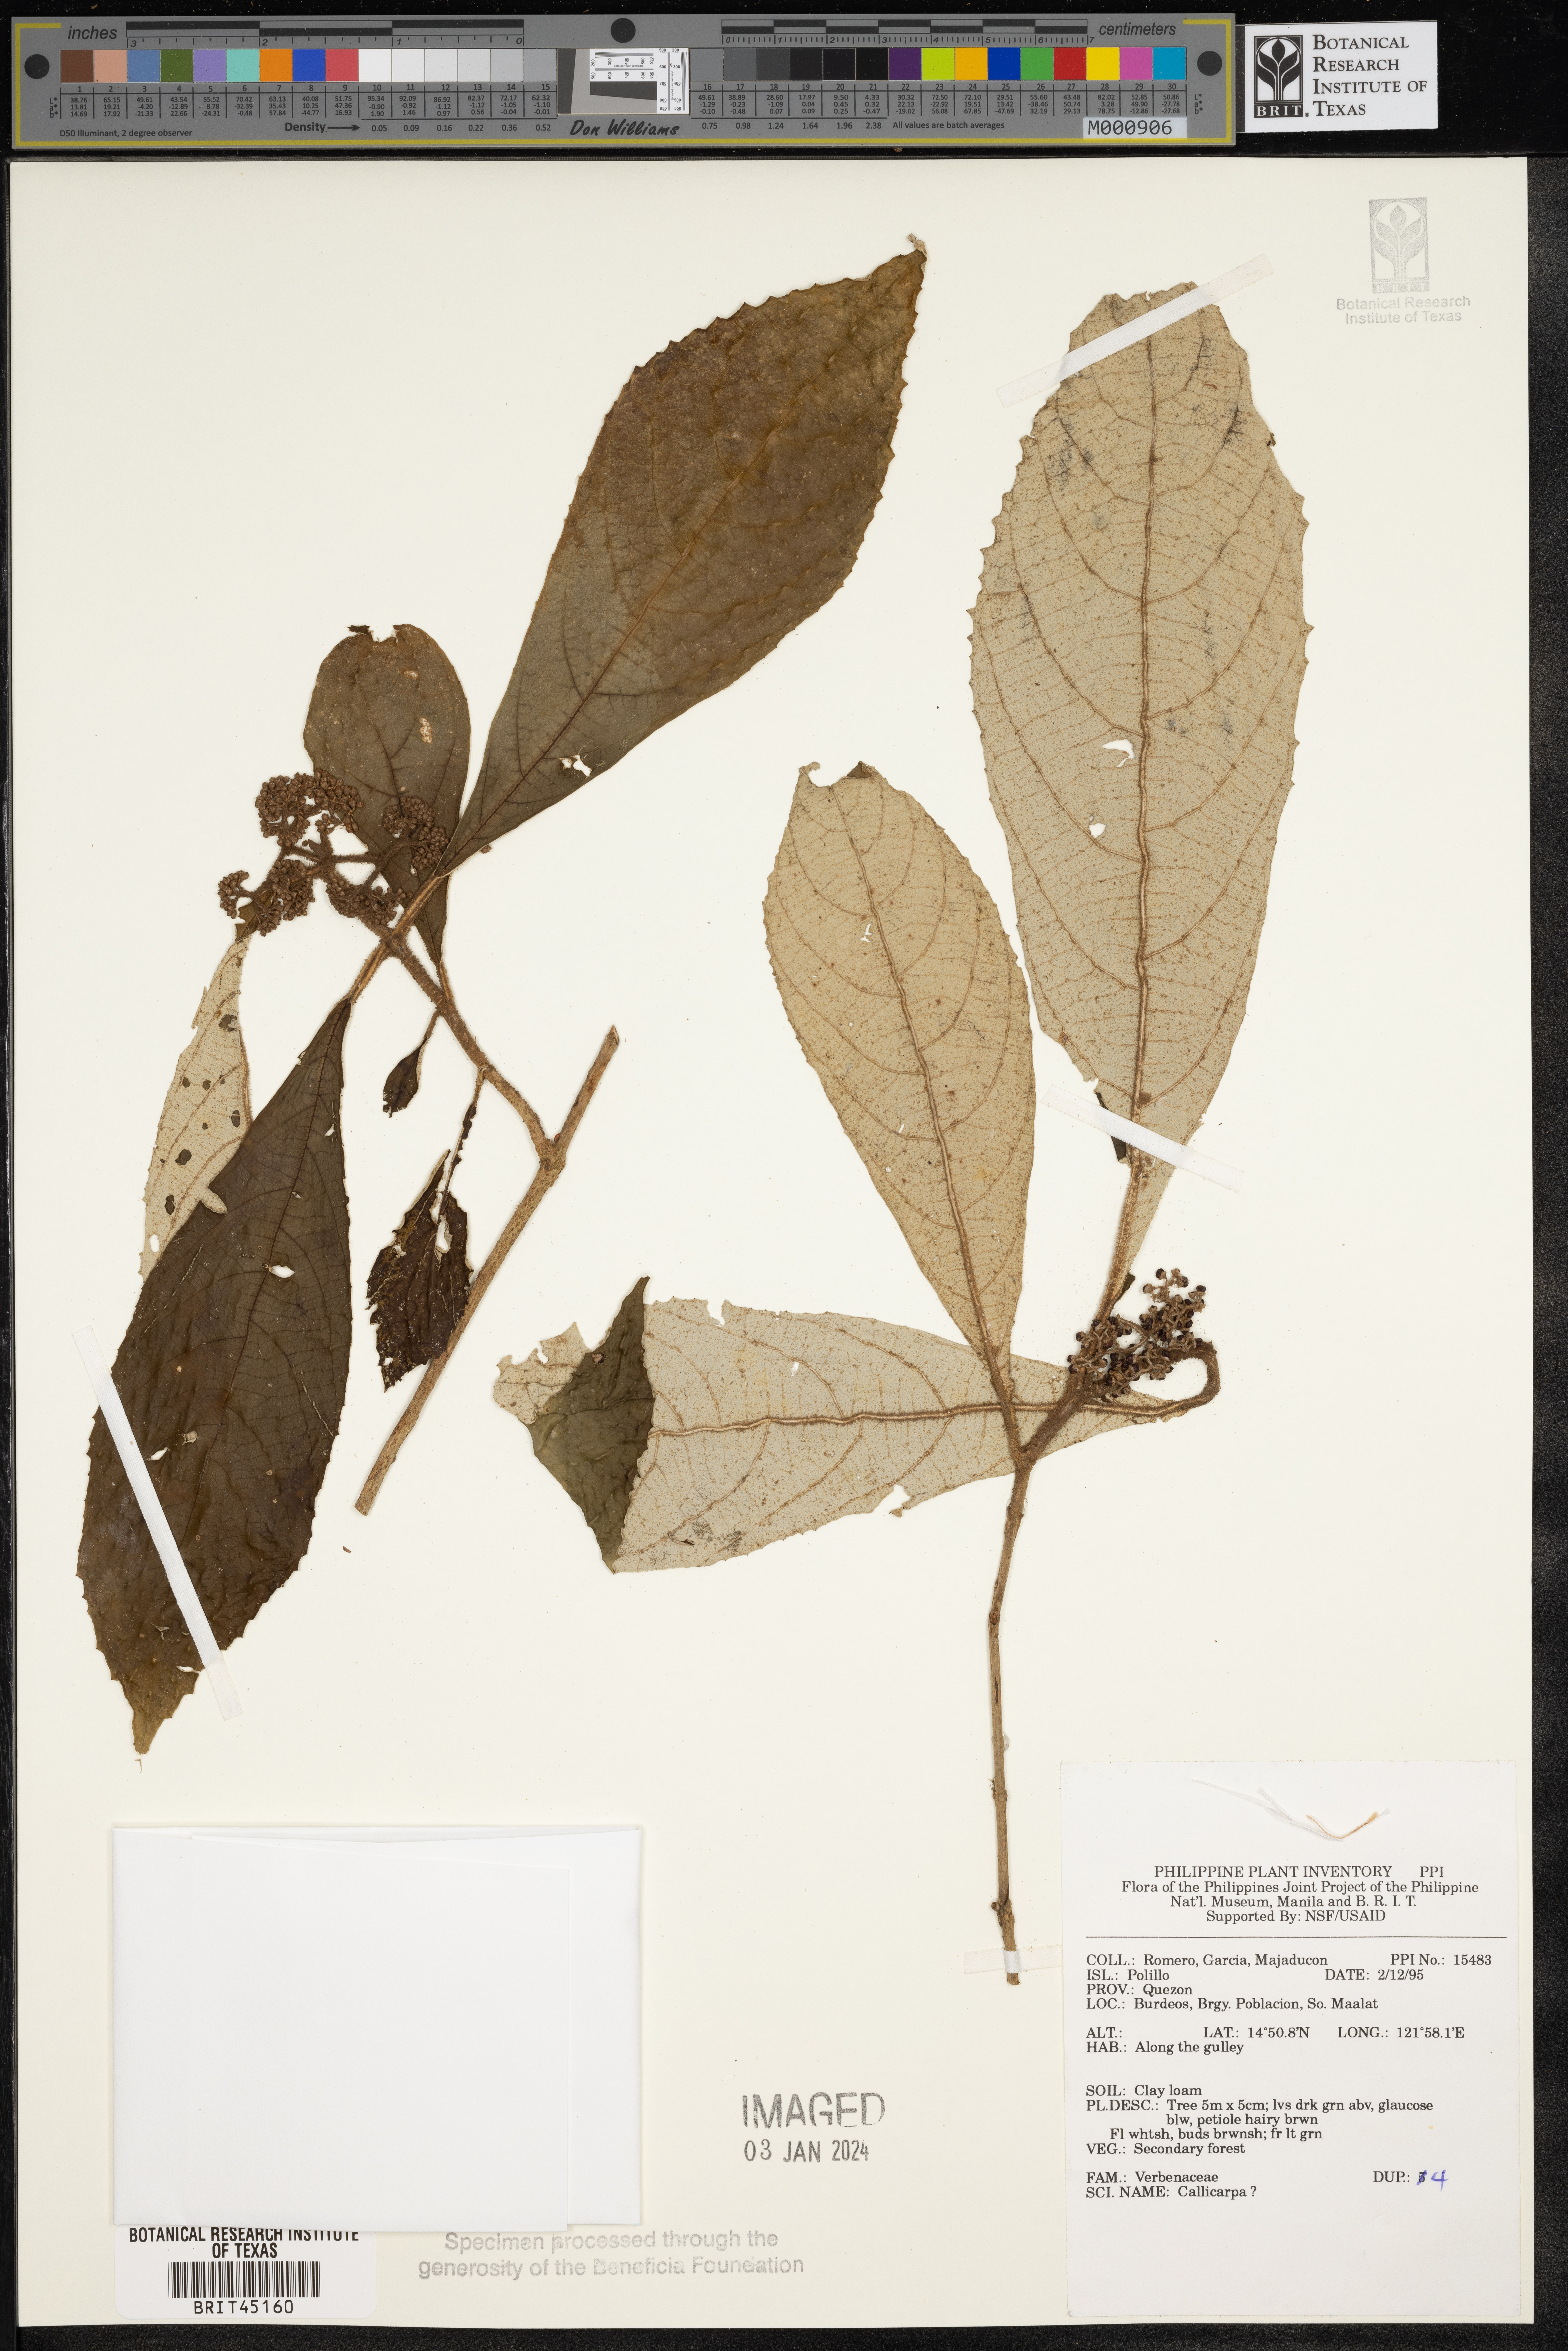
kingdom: Plantae
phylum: Tracheophyta
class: Magnoliopsida
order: Lamiales
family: Lamiaceae
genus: Callicarpa
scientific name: Callicarpa
